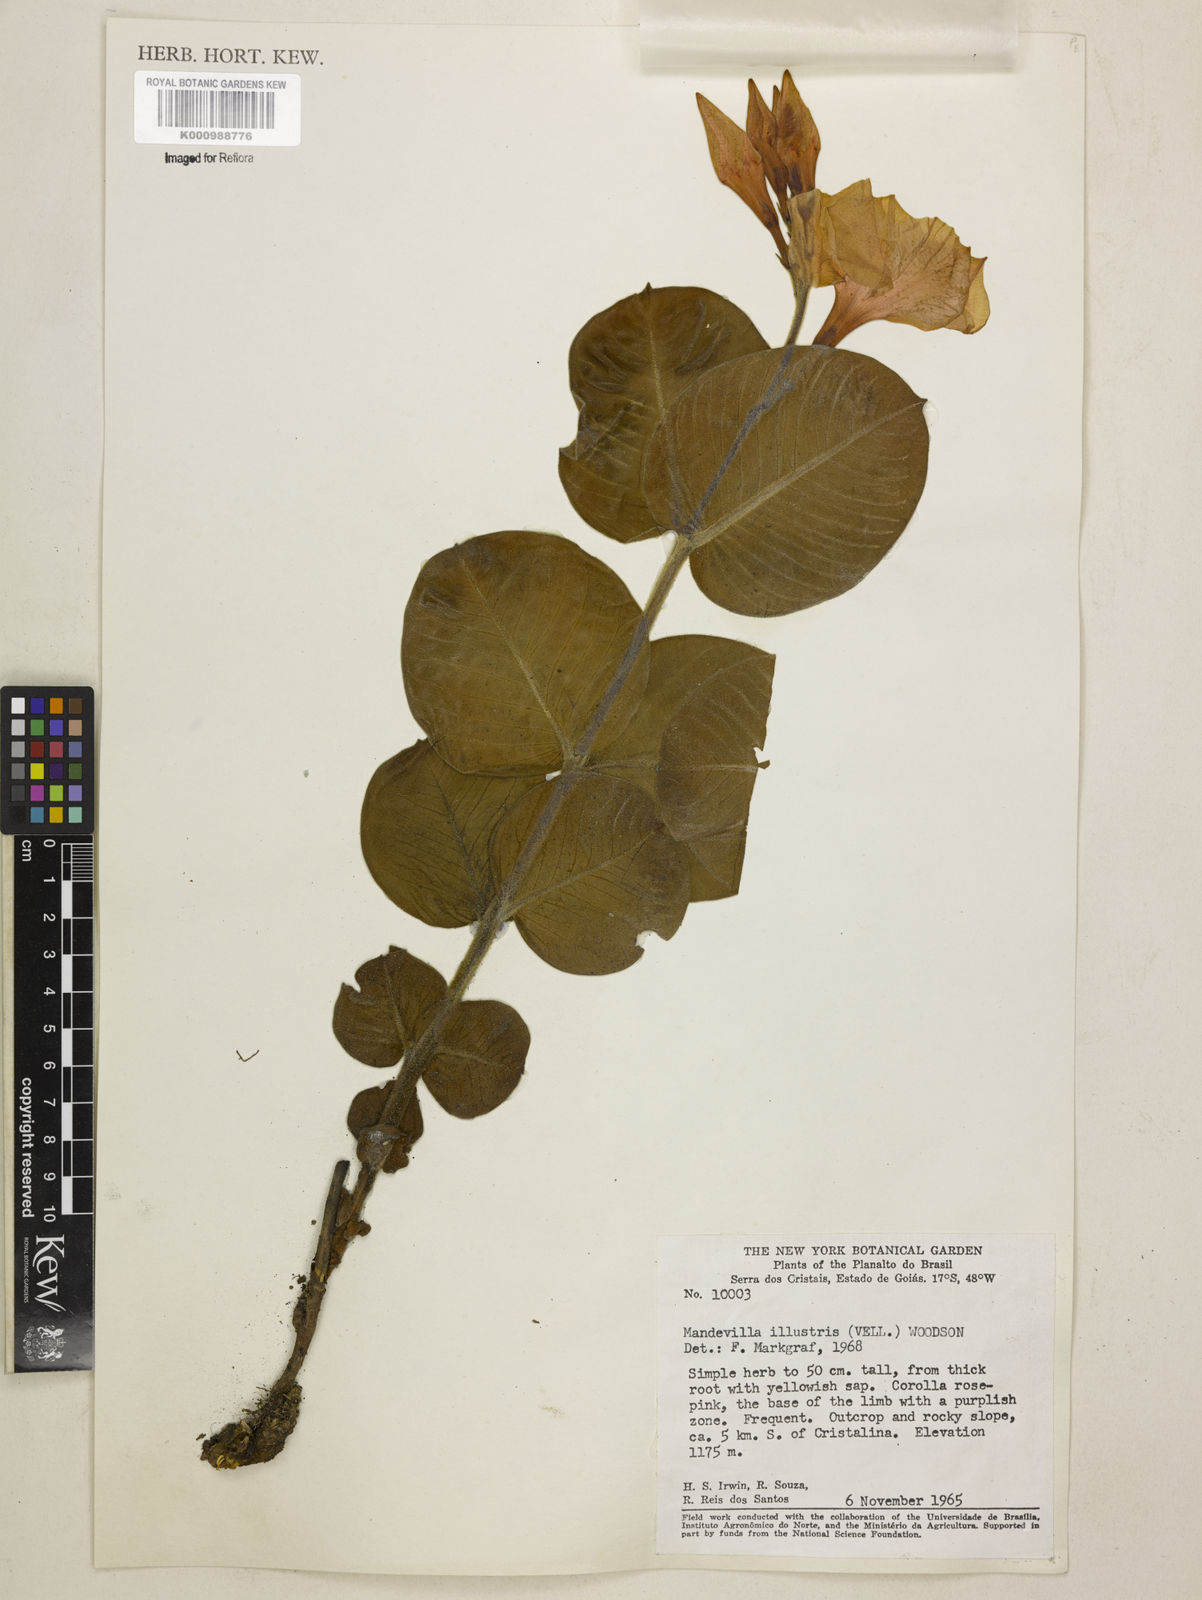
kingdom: Plantae
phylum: Tracheophyta
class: Magnoliopsida
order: Gentianales
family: Apocynaceae
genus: Mandevilla
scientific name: Mandevilla illustris
